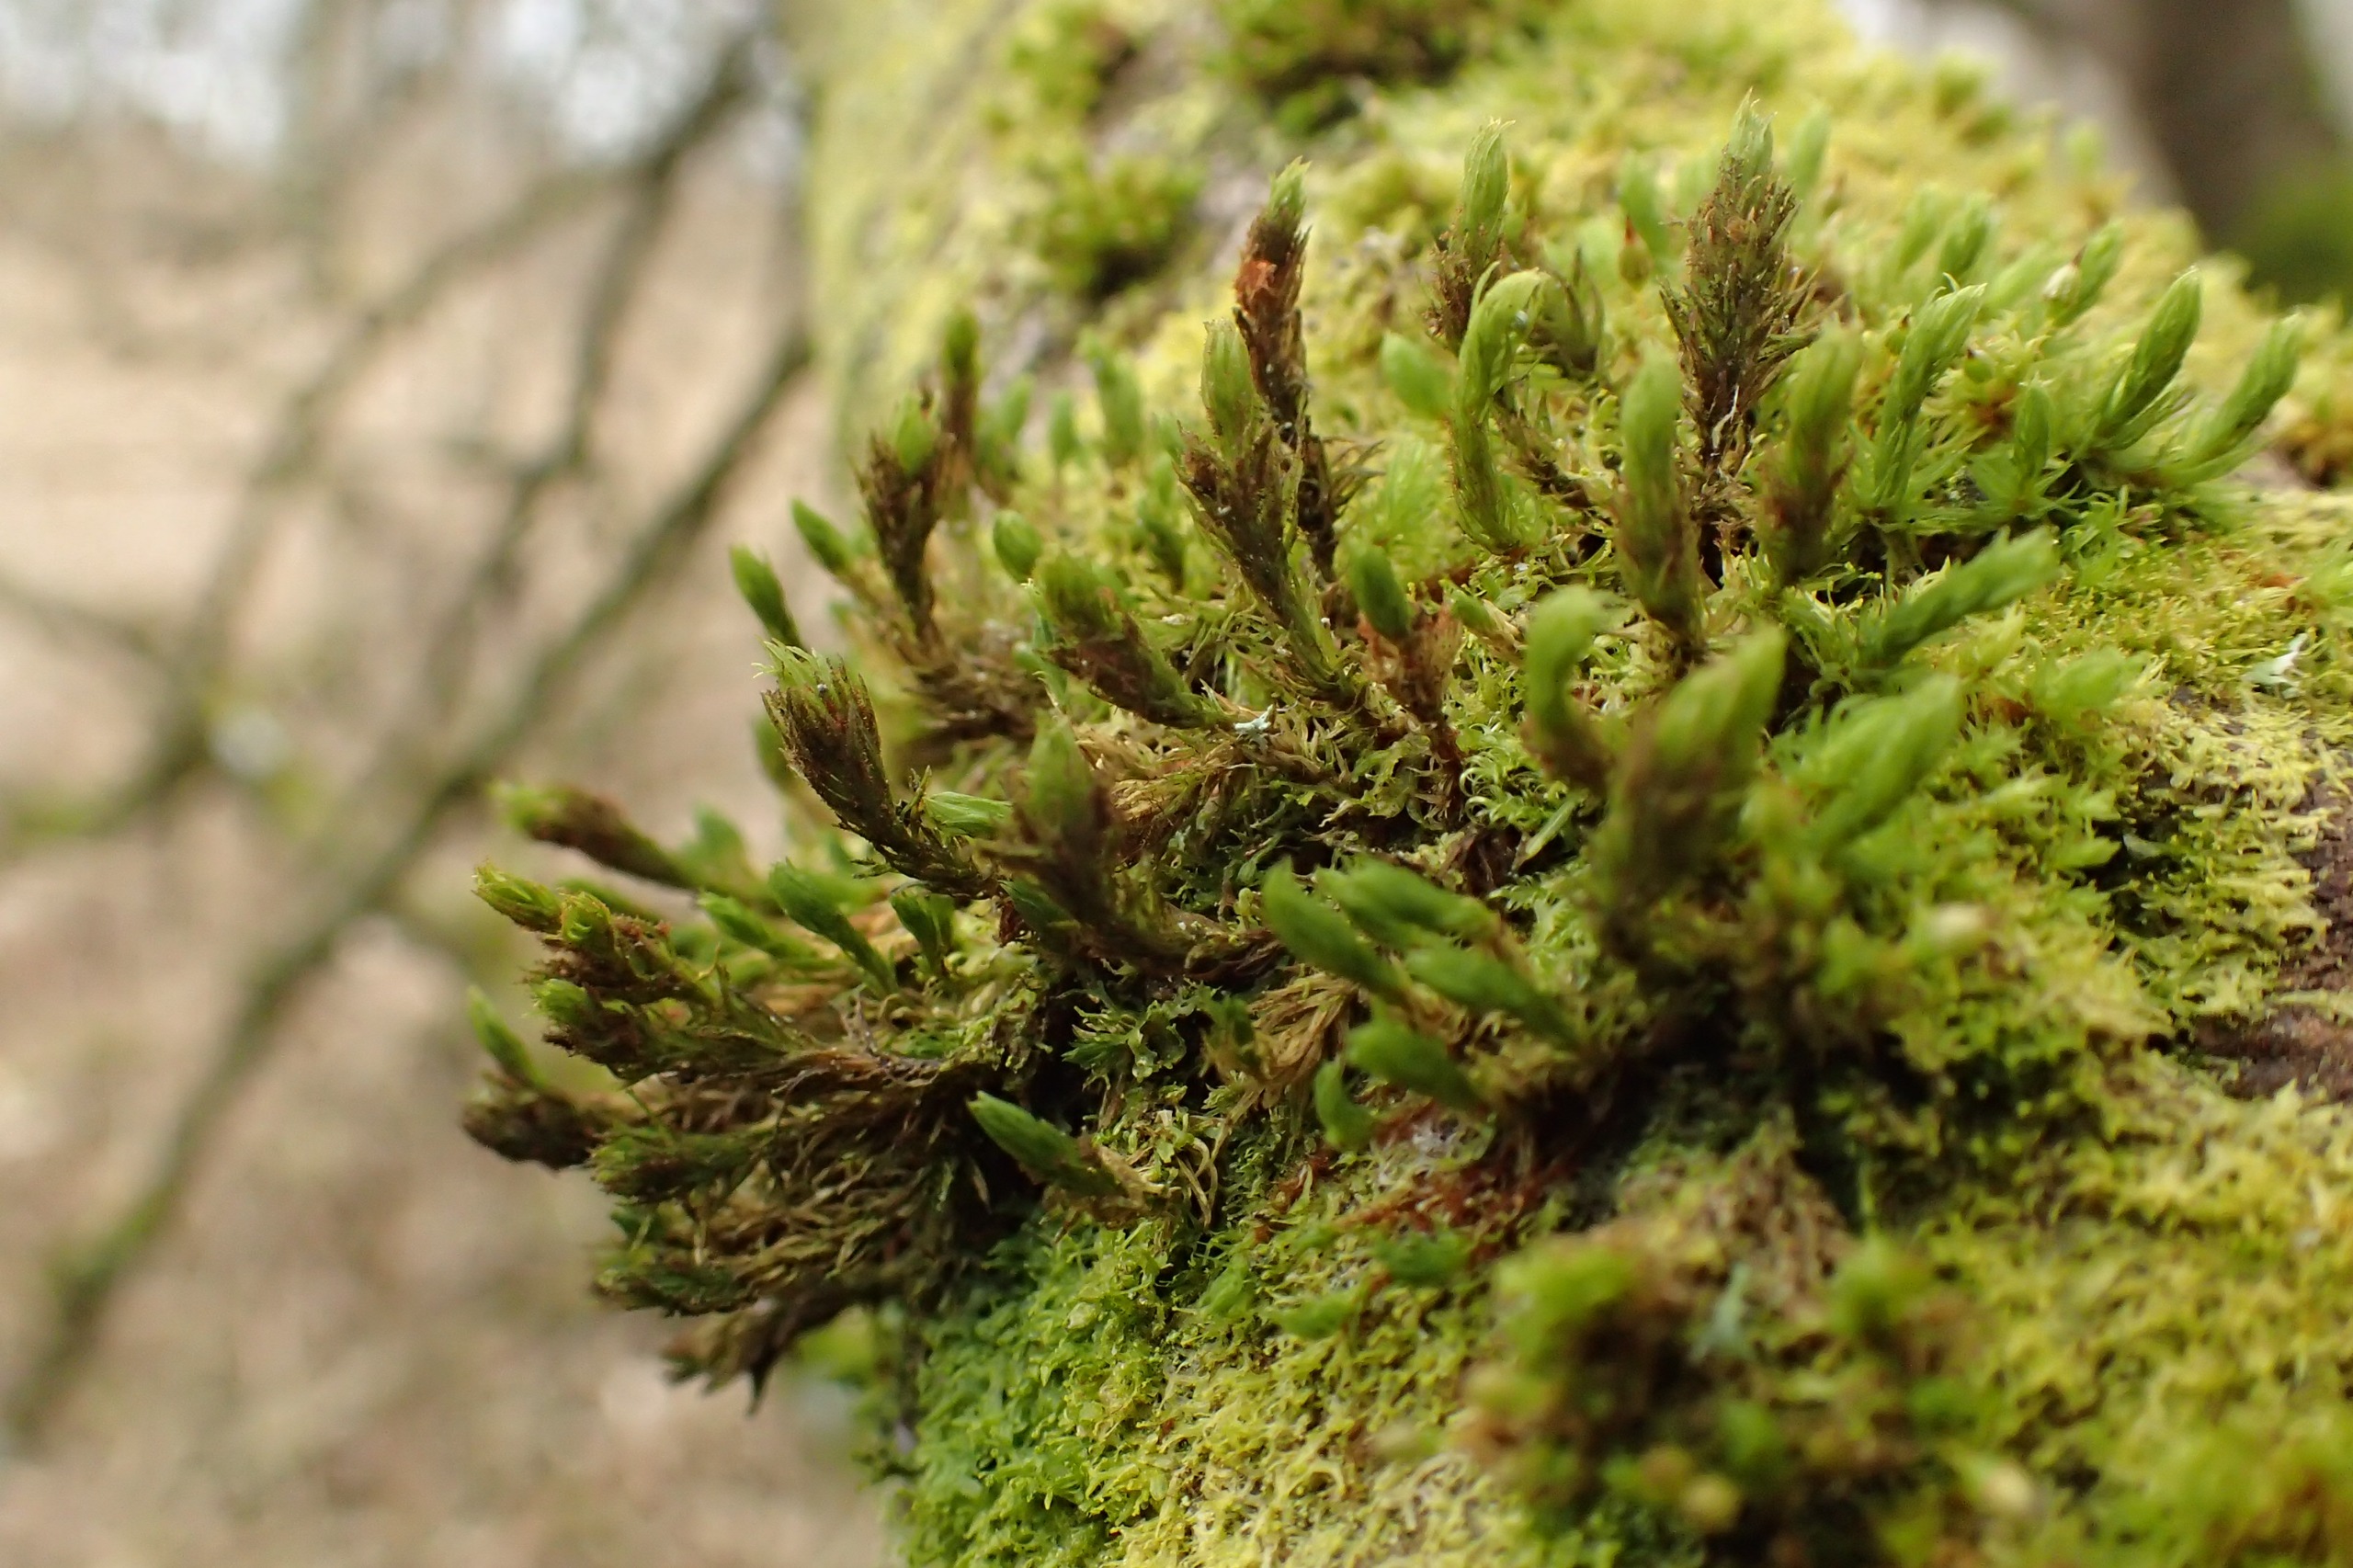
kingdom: Plantae
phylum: Bryophyta
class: Bryopsida
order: Orthotrichales
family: Orthotrichaceae
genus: Pulvigera
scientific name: Pulvigera lyellii
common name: Stor furehætte
